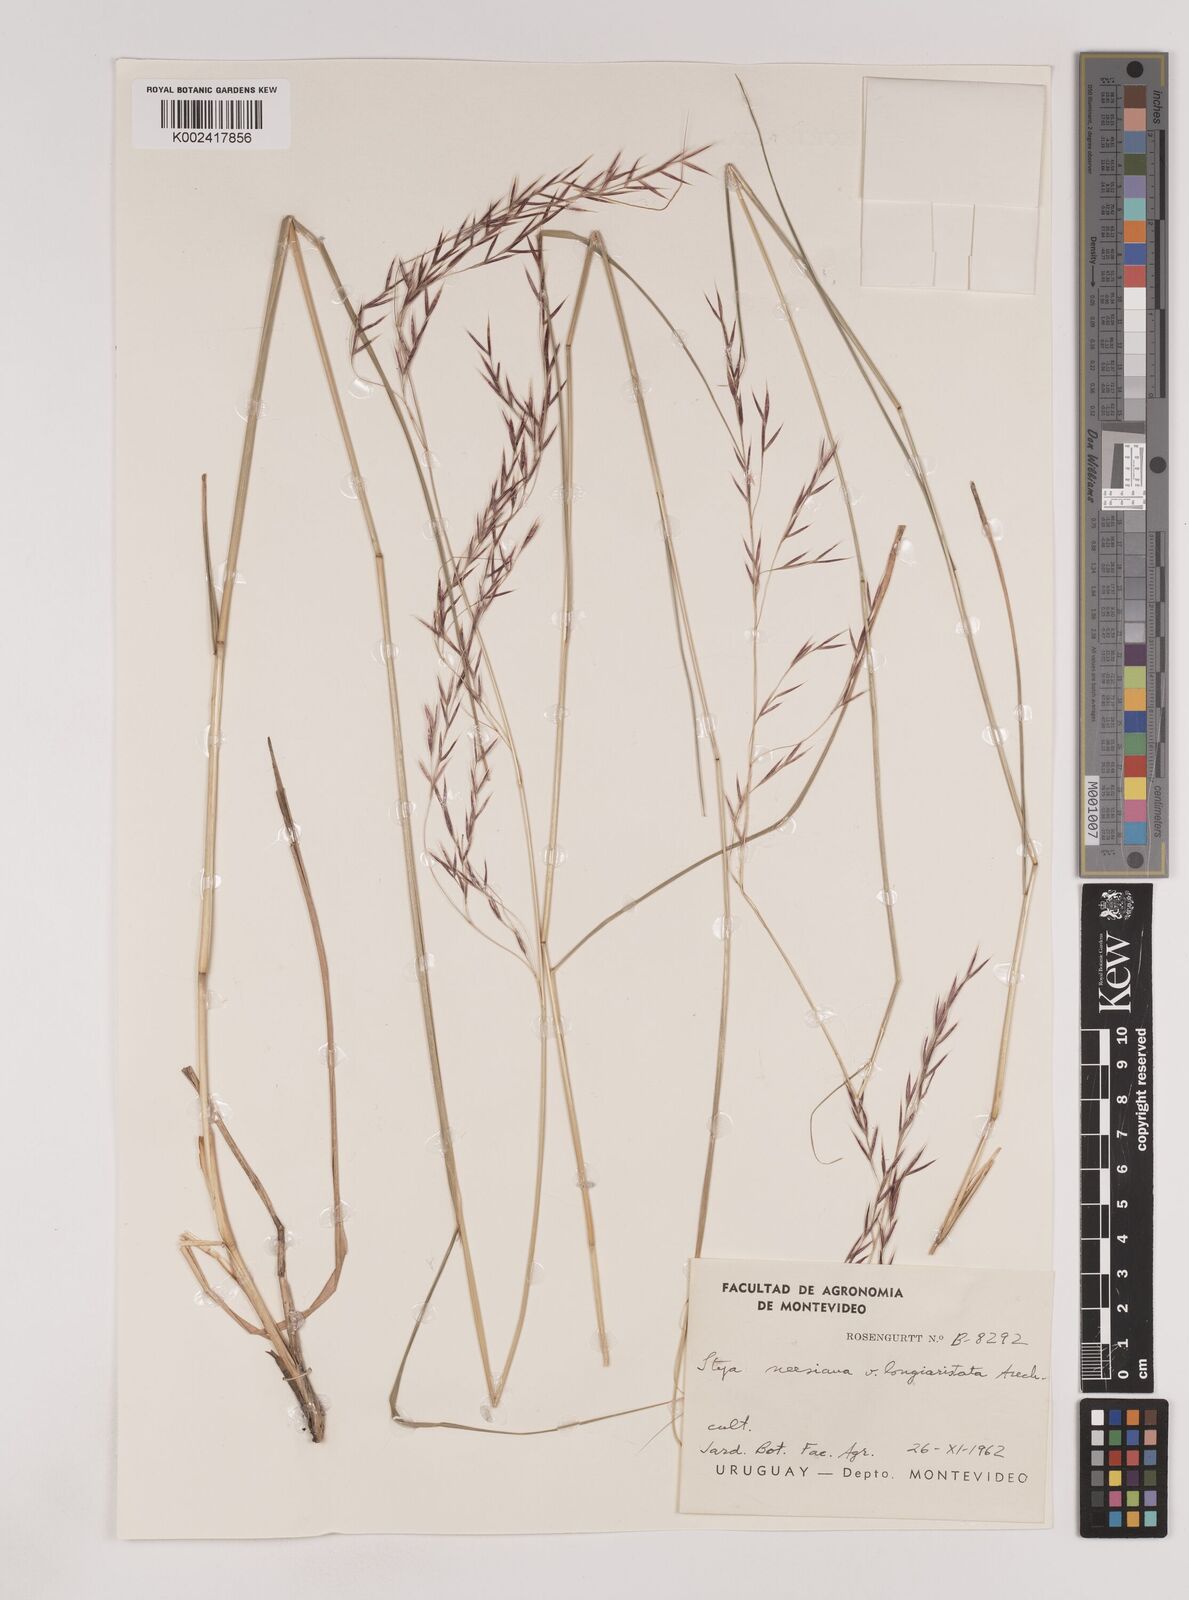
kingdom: Plantae
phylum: Tracheophyta
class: Liliopsida
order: Poales
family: Poaceae
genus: Nassella
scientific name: Nassella neesiana
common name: American needle-grass
